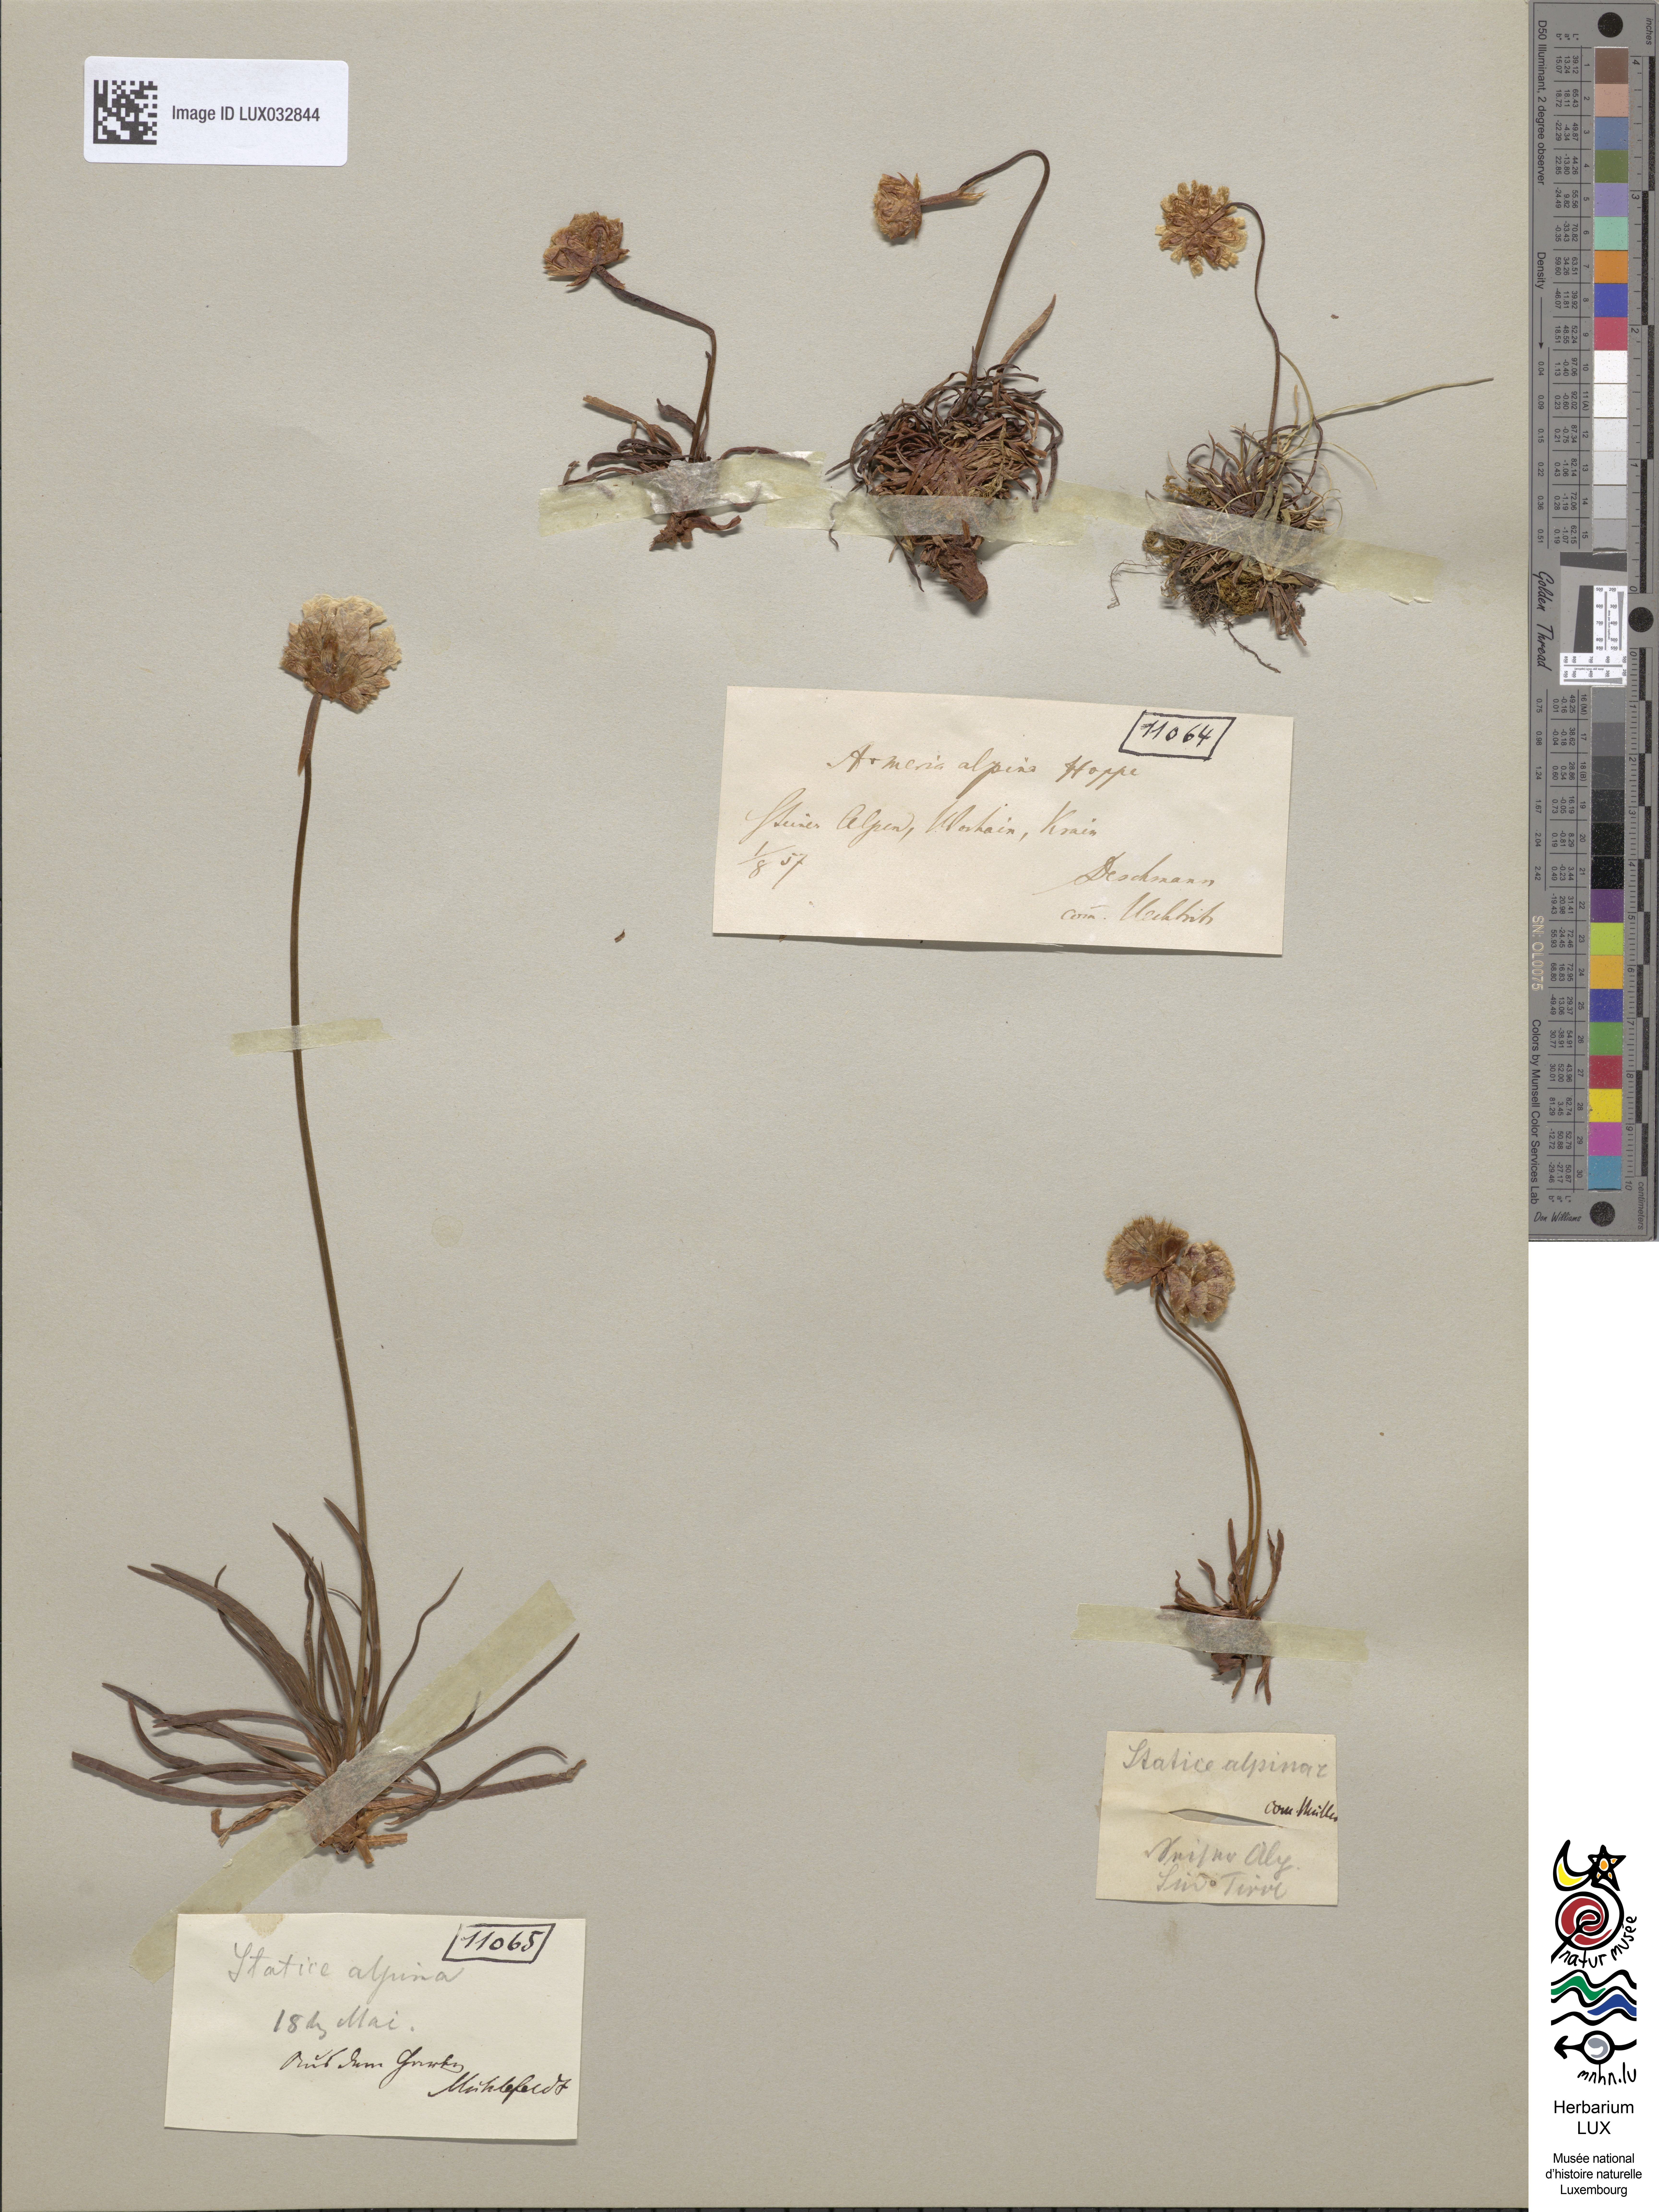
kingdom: Plantae
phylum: Tracheophyta
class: Magnoliopsida
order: Caryophyllales
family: Plumbaginaceae
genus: Armeria
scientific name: Armeria alpina
